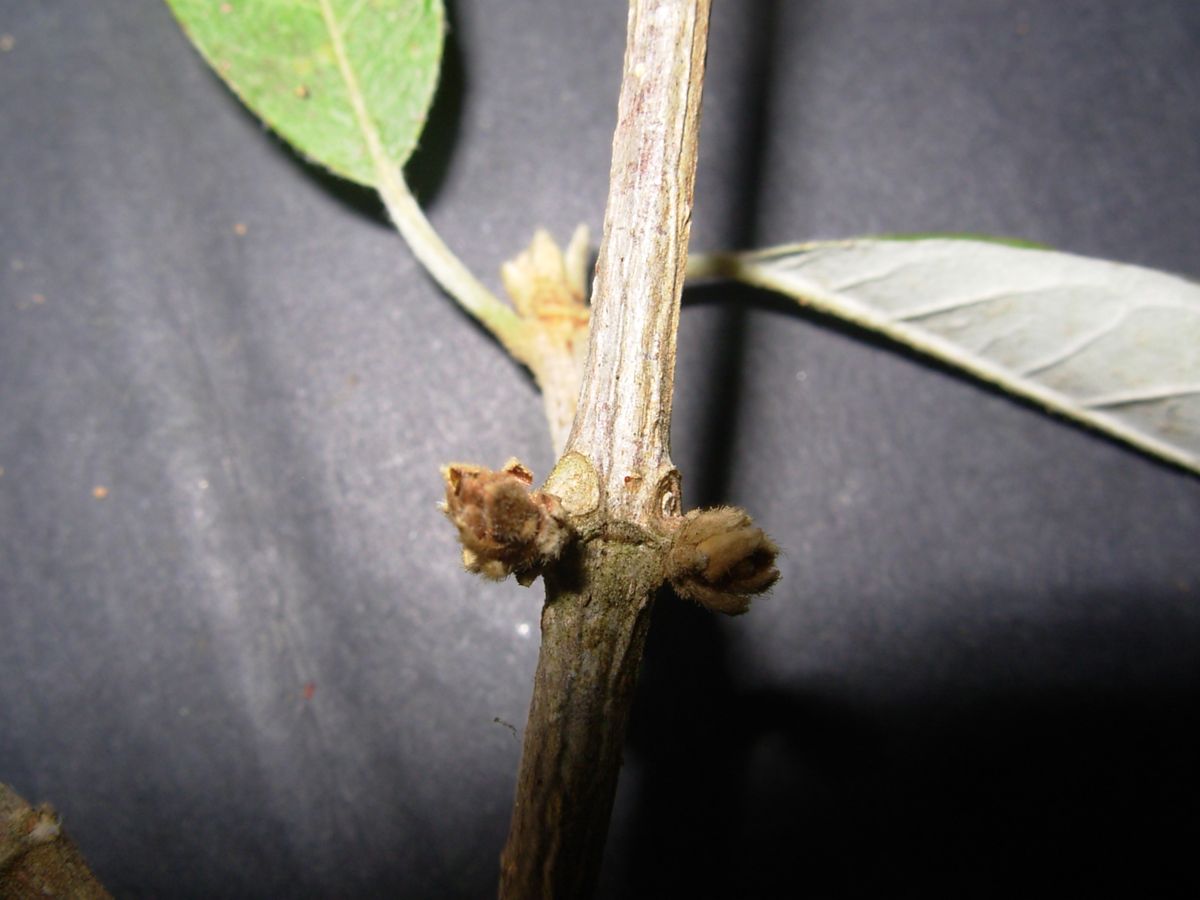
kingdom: Plantae
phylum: Tracheophyta
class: Magnoliopsida
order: Malpighiales
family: Trigoniaceae
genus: Trigonia
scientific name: Trigonia rugosa
